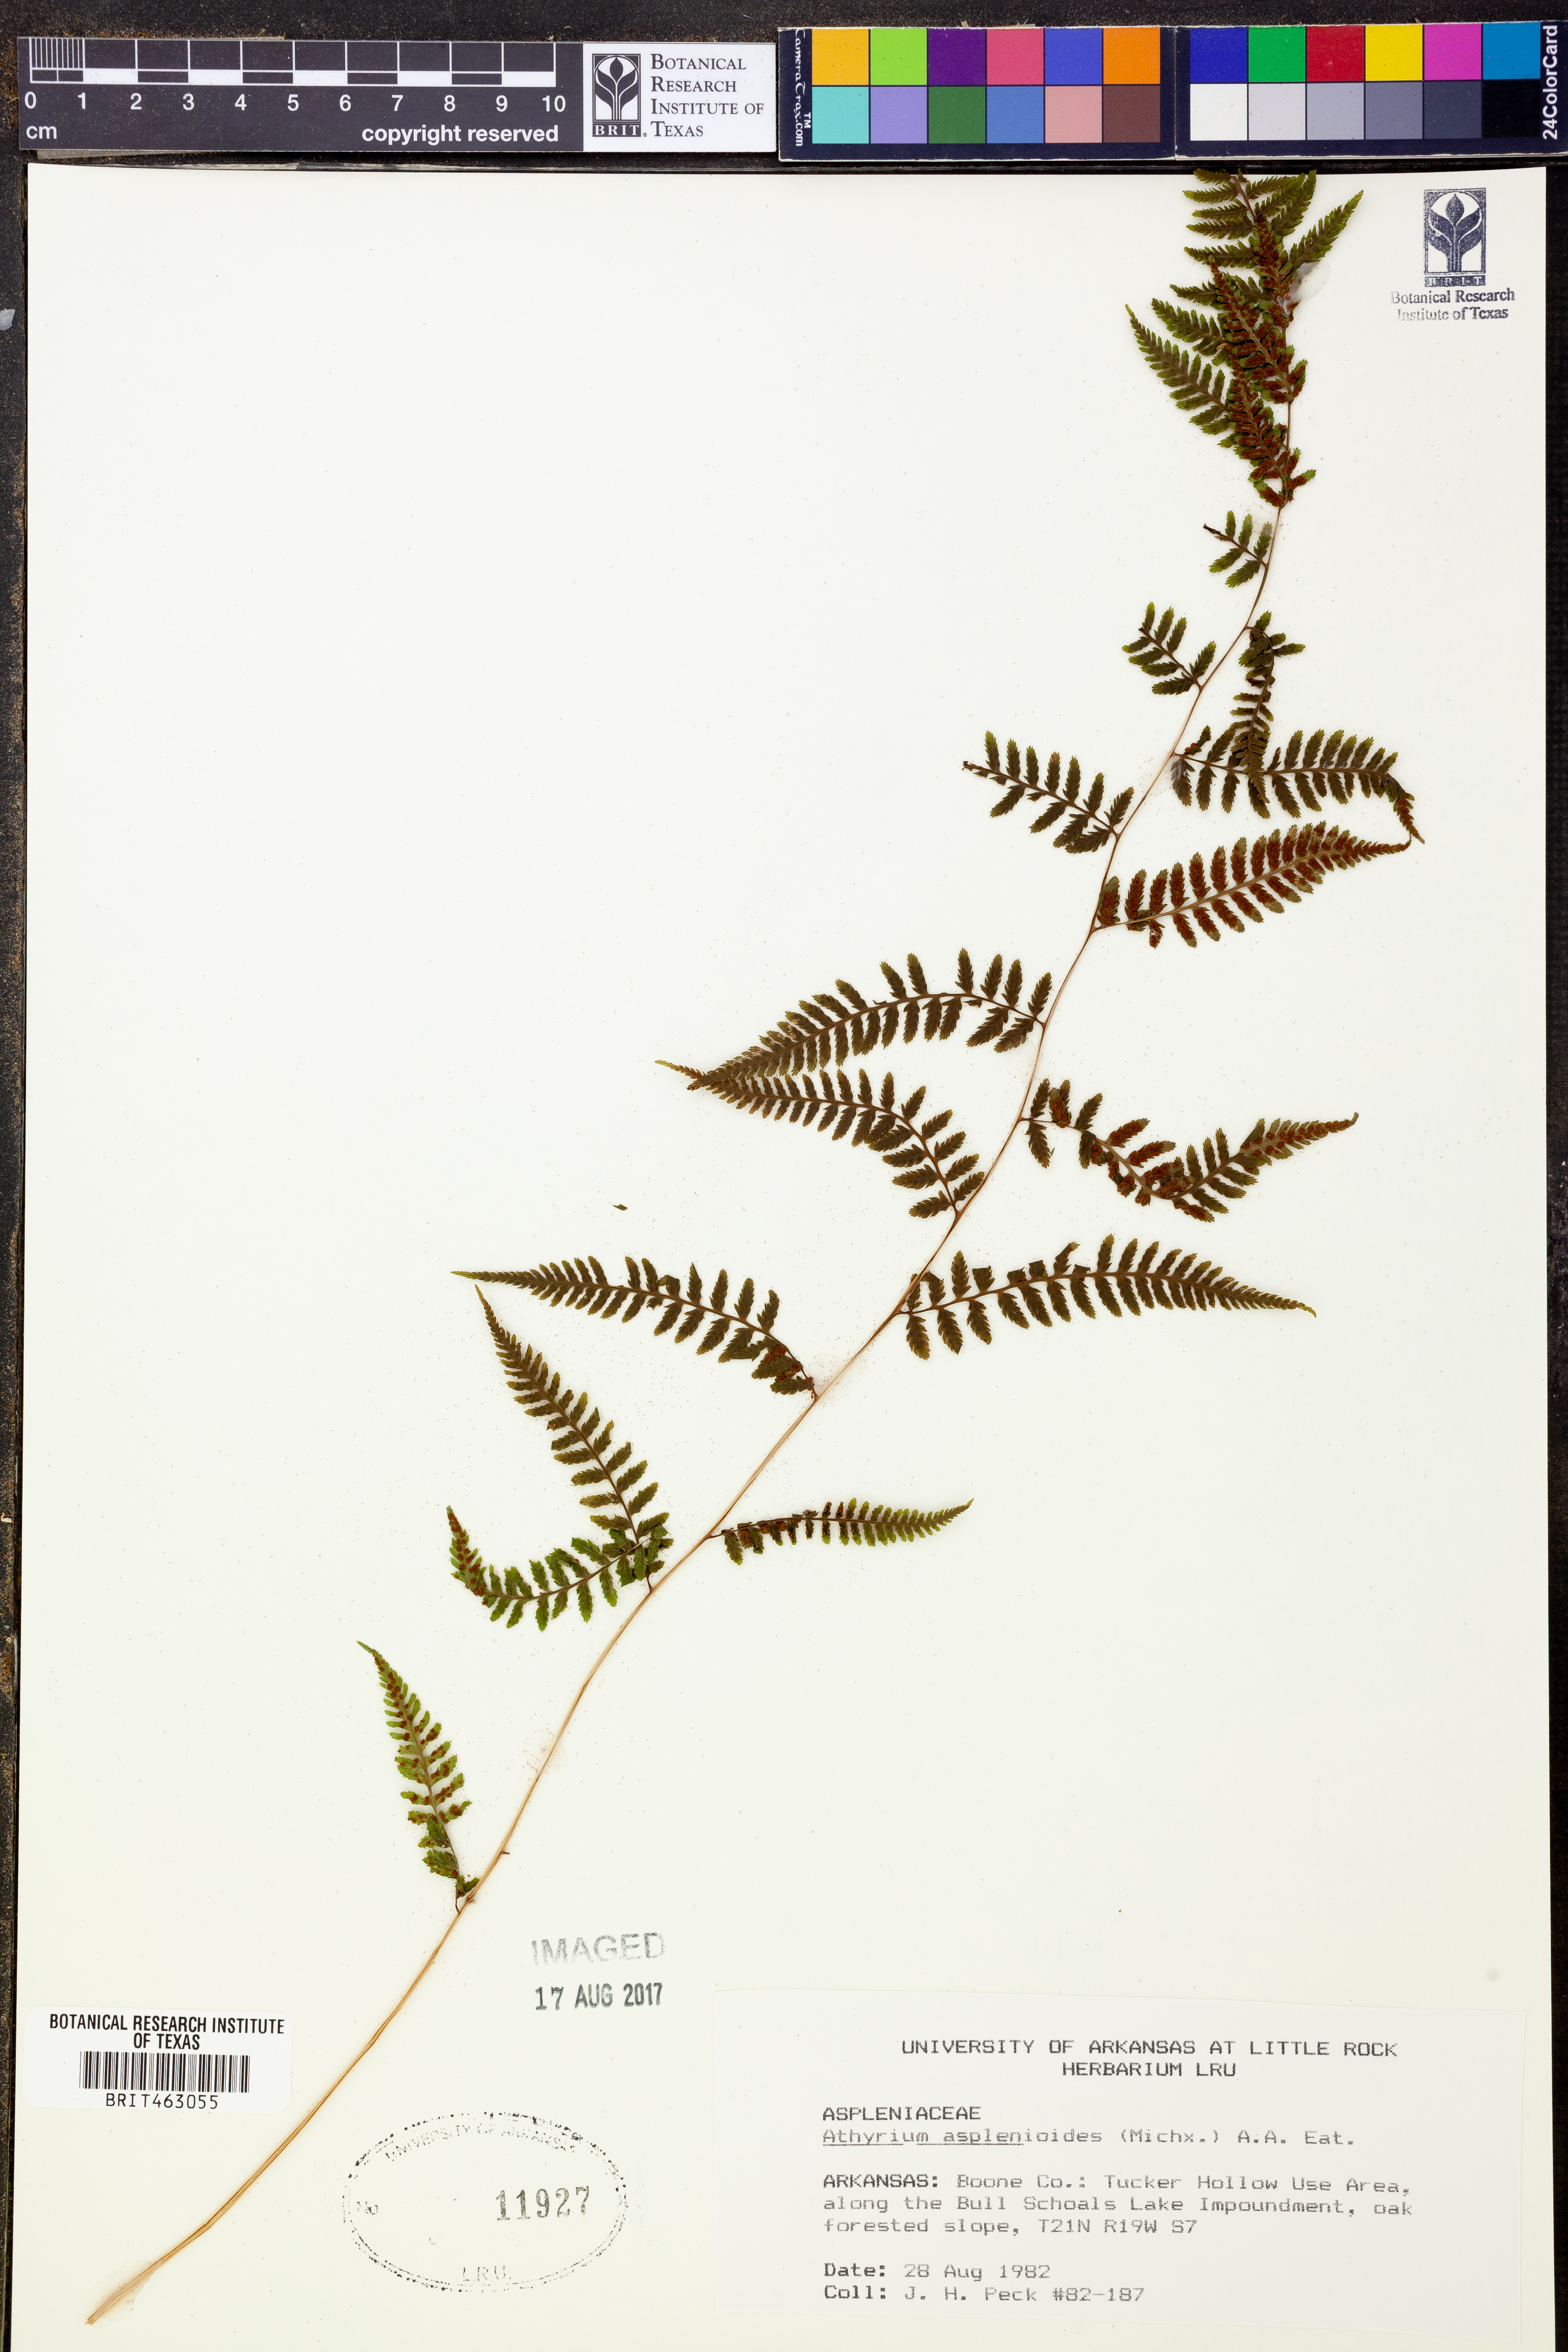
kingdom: Plantae
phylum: Tracheophyta
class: Polypodiopsida
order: Polypodiales
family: Athyriaceae
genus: Athyrium
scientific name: Athyrium asplenioides
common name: Southern lady fern
